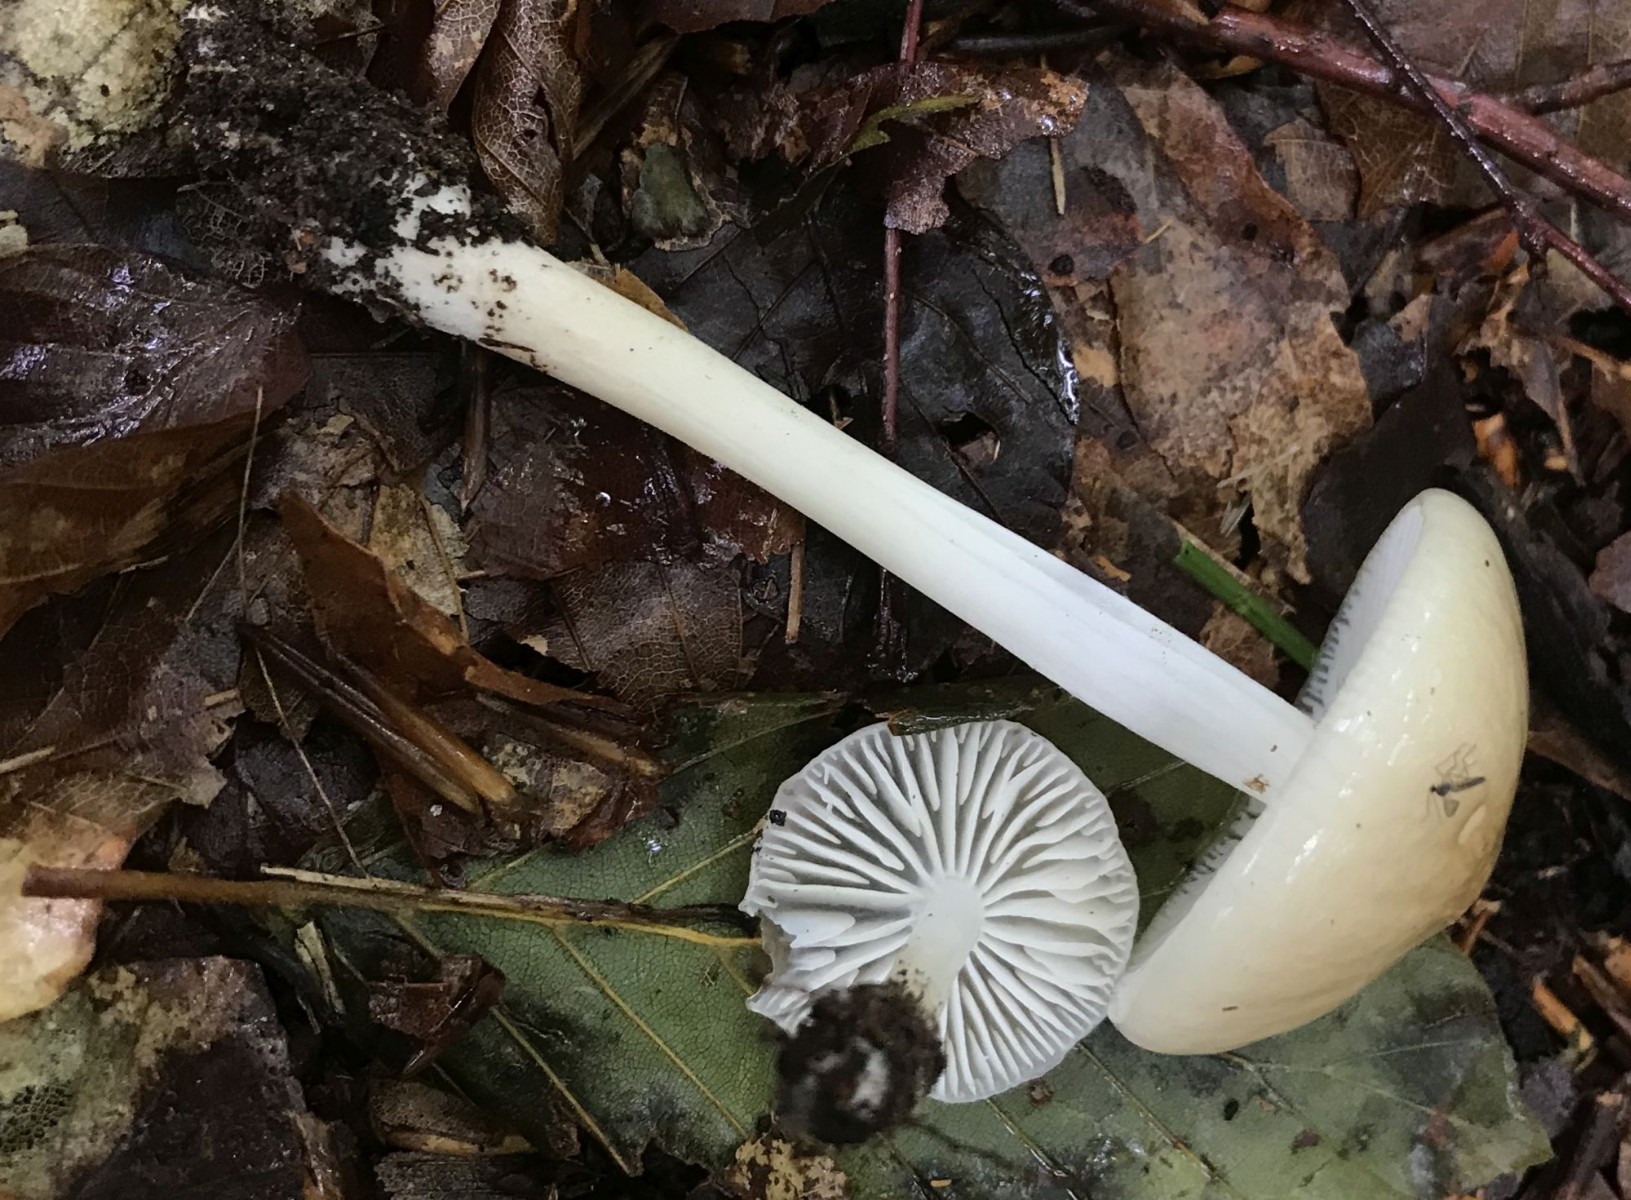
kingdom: Fungi
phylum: Basidiomycota
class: Agaricomycetes
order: Agaricales
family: Physalacriaceae
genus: Hymenopellis
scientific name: Hymenopellis radicata
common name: almindelig pælerodshat
